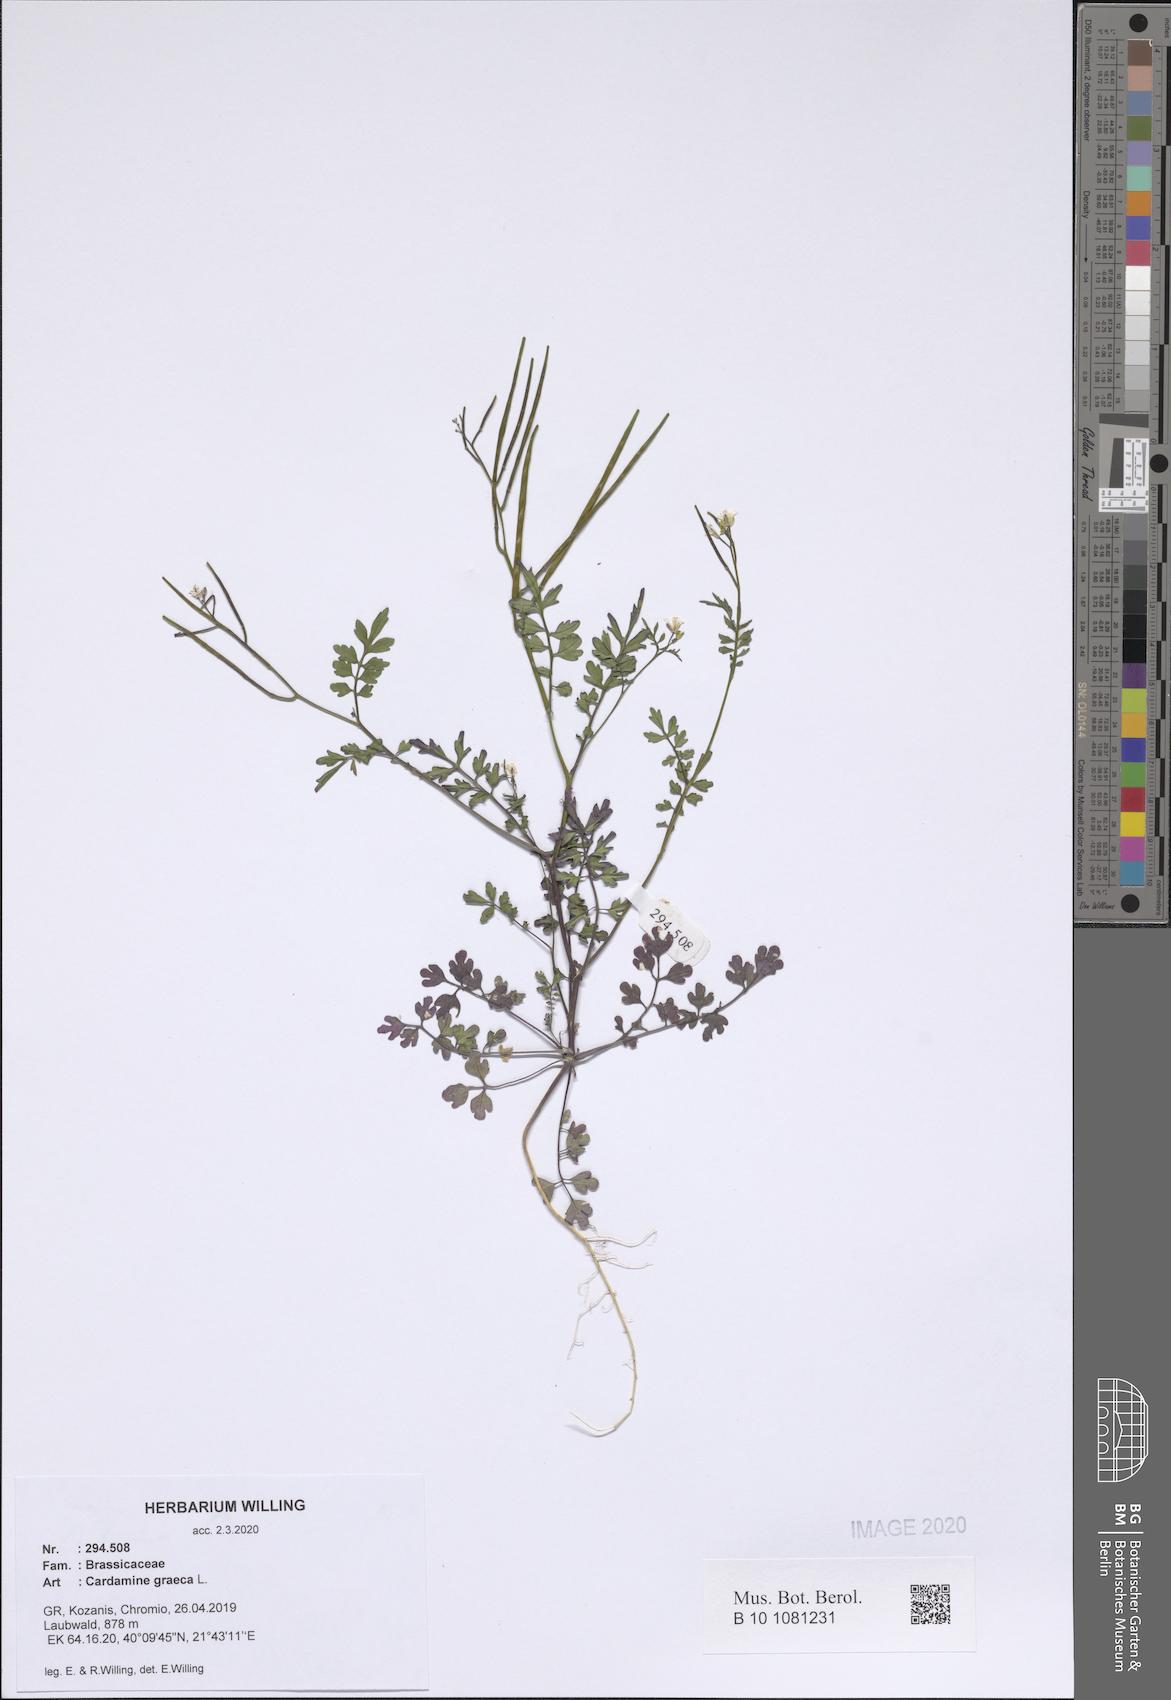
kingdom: Plantae
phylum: Tracheophyta
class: Magnoliopsida
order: Brassicales
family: Brassicaceae
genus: Cardamine
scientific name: Cardamine graeca
